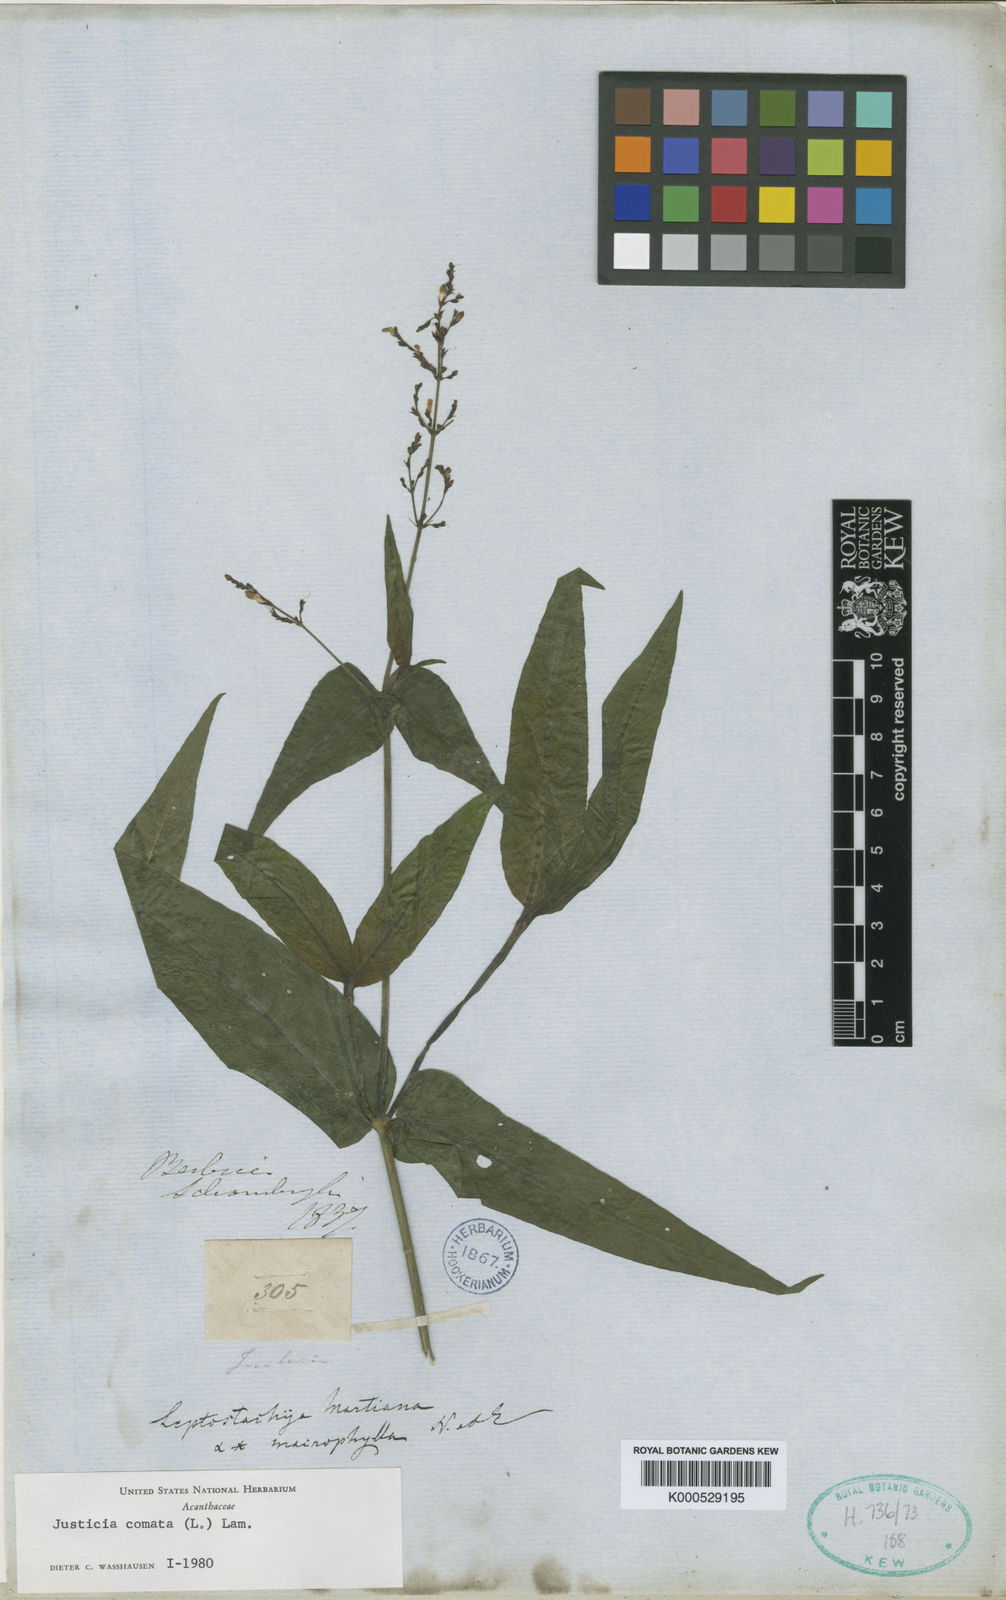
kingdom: Plantae
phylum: Tracheophyta
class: Magnoliopsida
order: Lamiales
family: Acanthaceae
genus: Dianthera
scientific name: Dianthera comata
